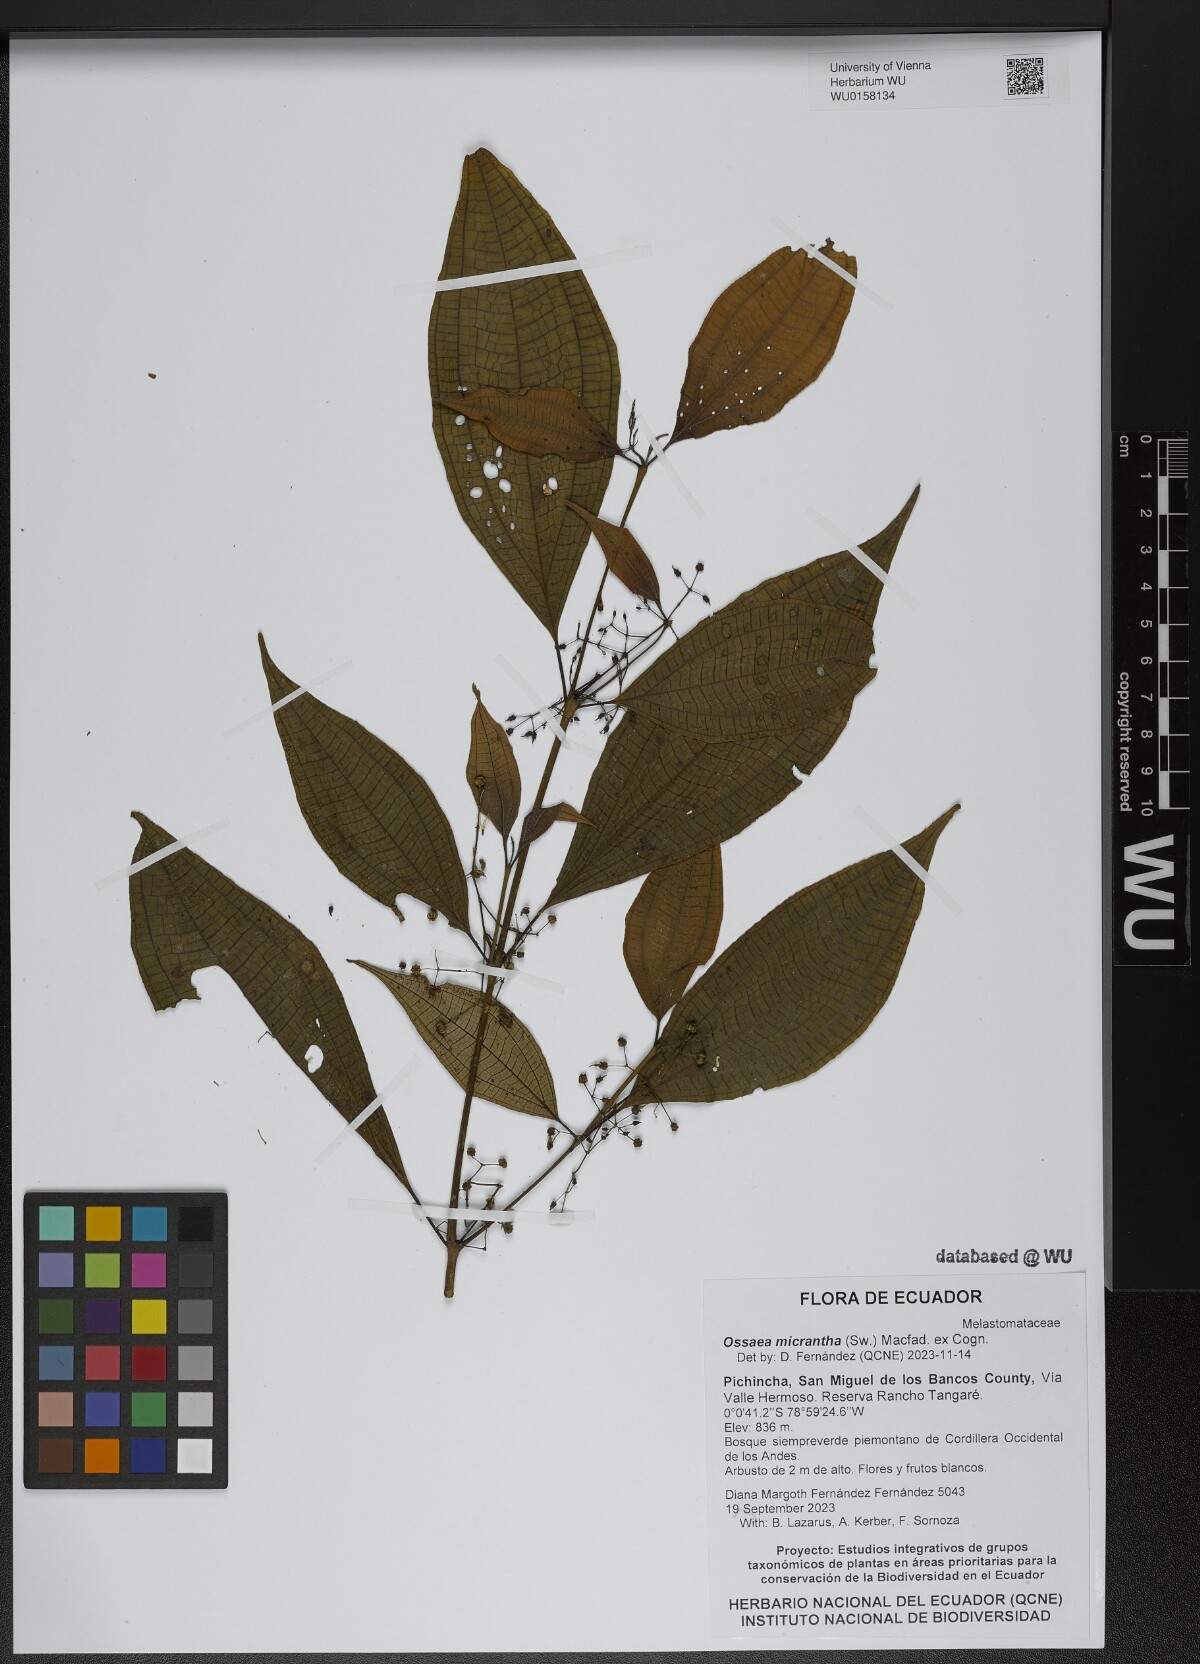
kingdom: Plantae
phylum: Tracheophyta
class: Magnoliopsida
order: Myrtales
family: Melastomataceae
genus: Miconia
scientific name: Miconia rubescens
